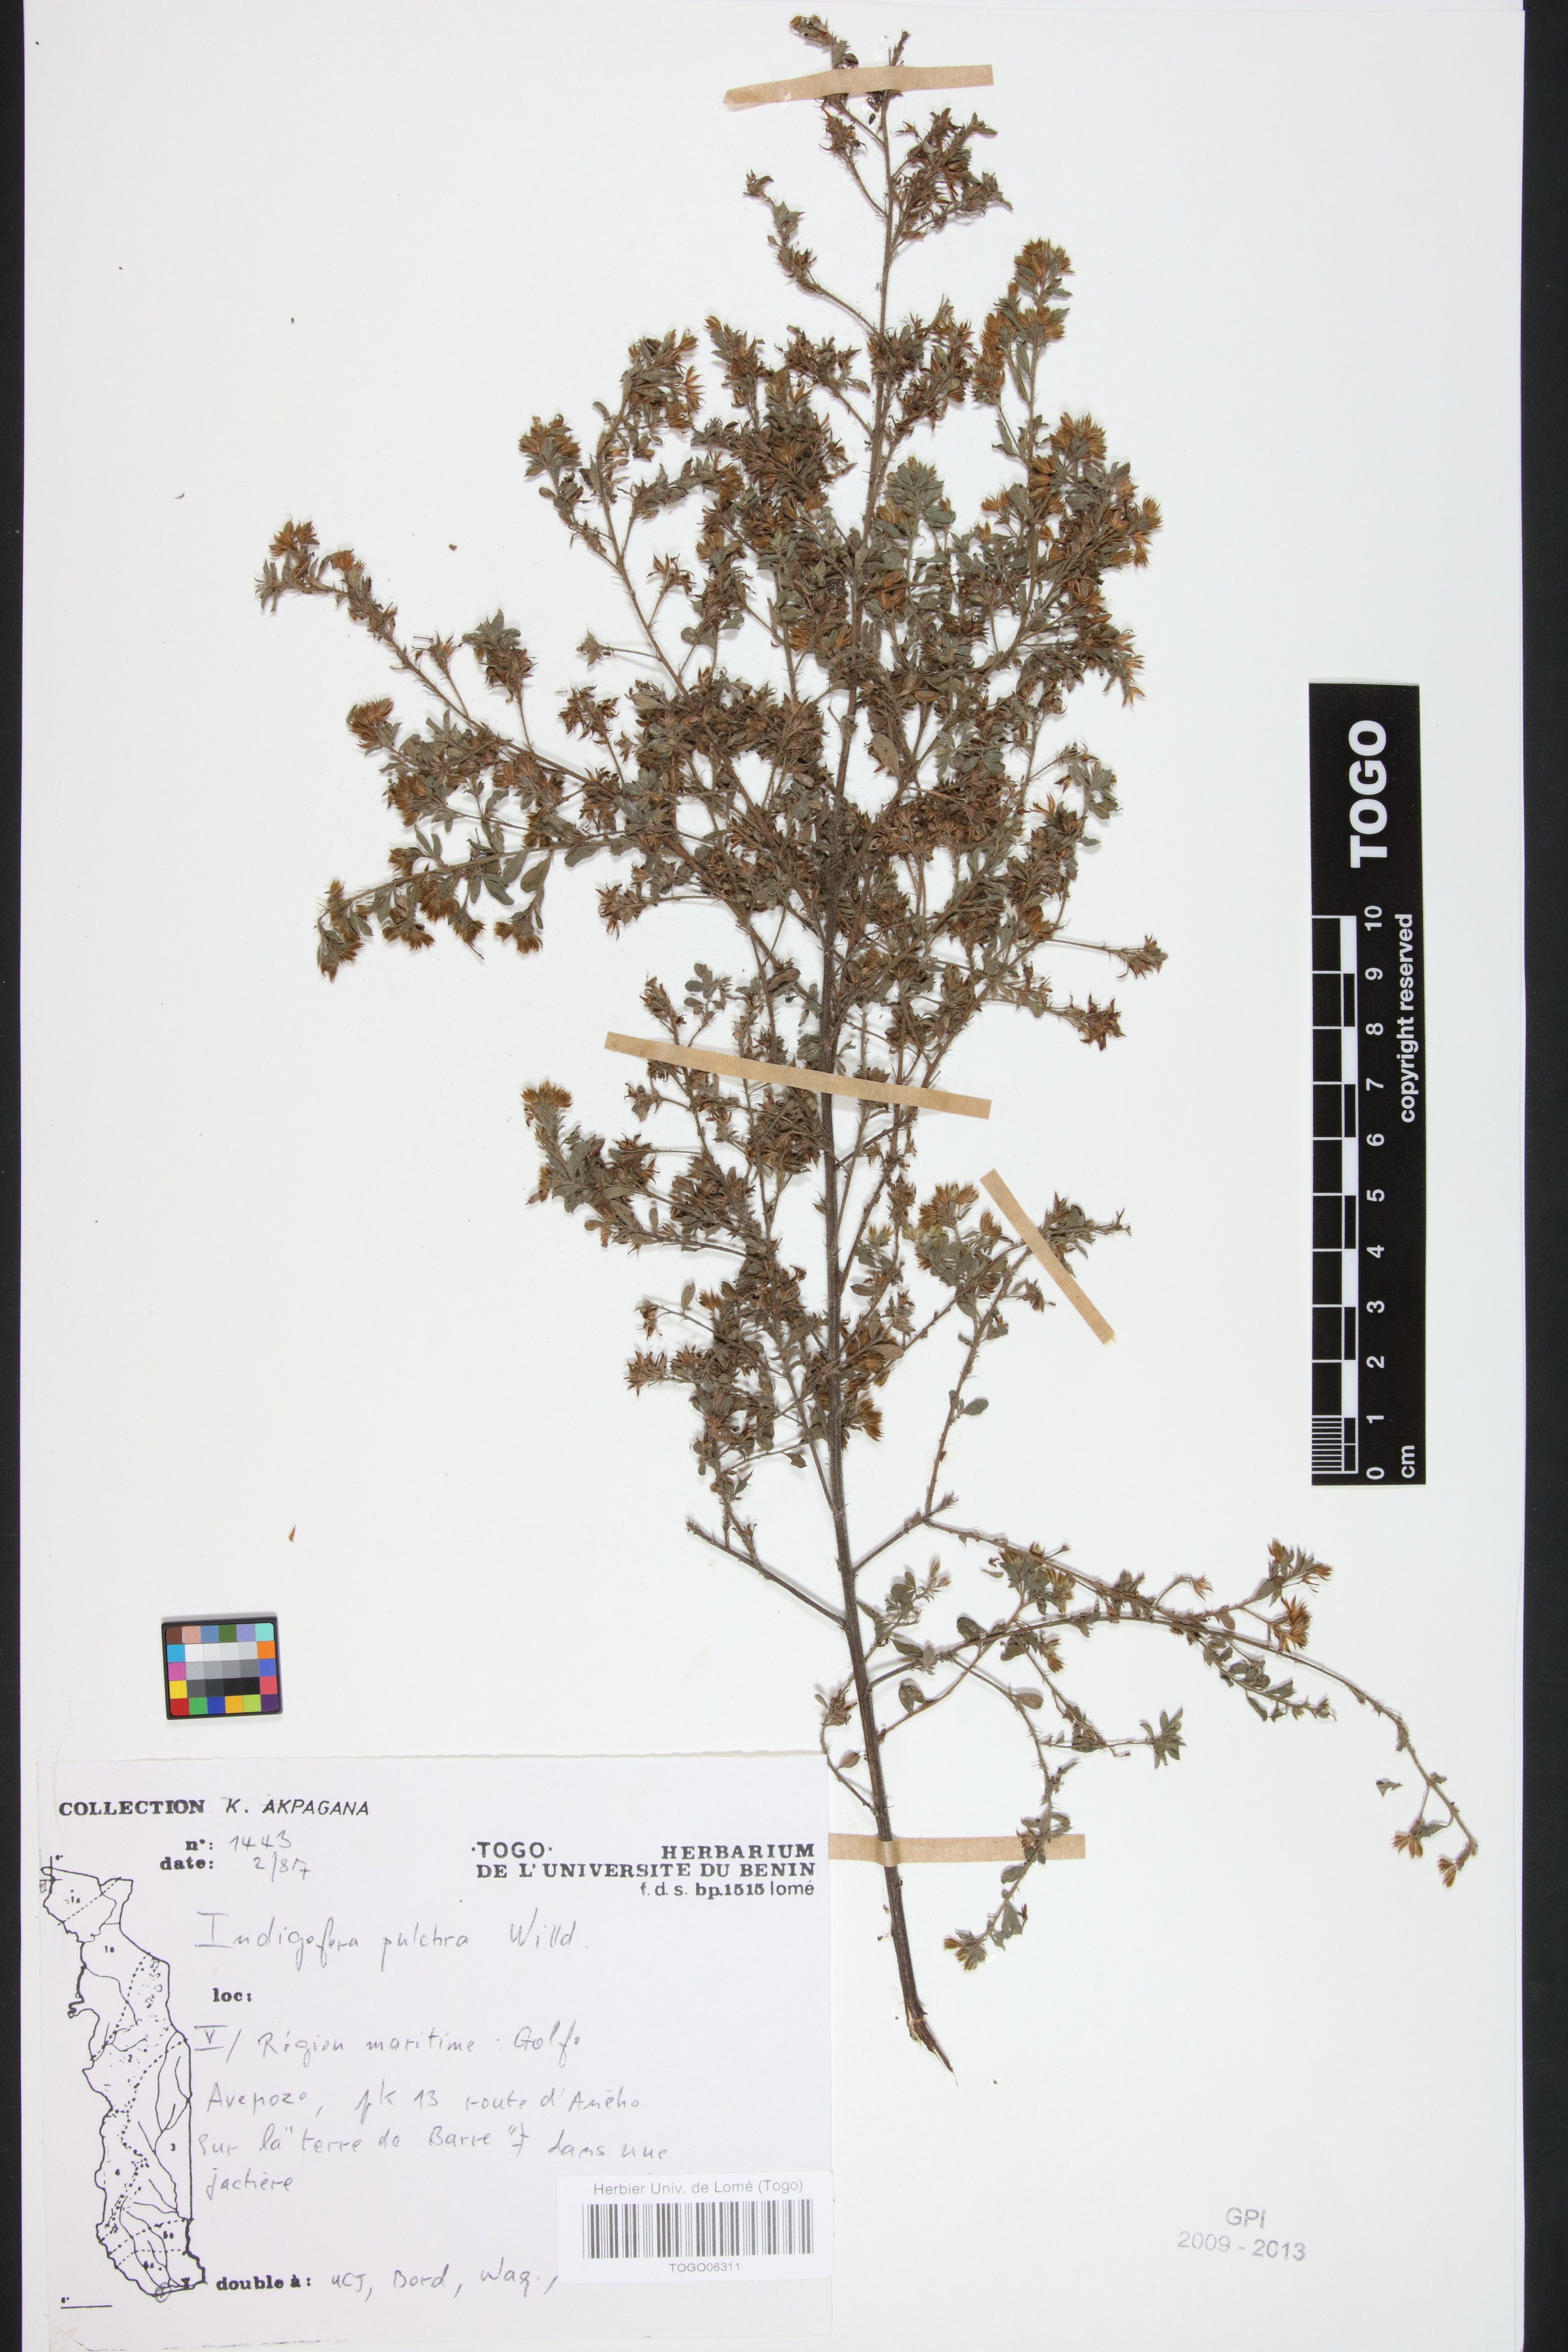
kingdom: Plantae
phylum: Tracheophyta
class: Magnoliopsida
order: Fabales
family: Fabaceae
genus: Indigofera
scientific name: Indigofera pulchra
